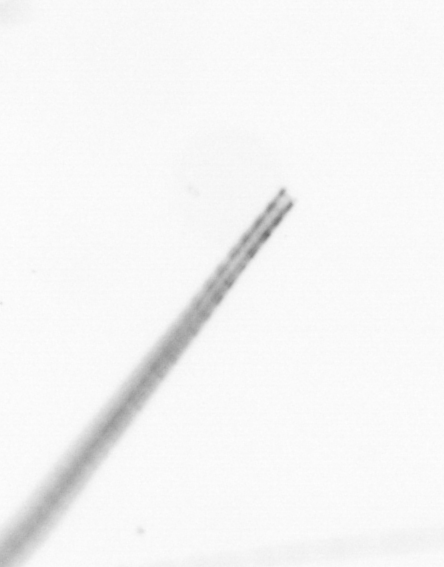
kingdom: Chromista
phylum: Ochrophyta
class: Bacillariophyceae
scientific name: Bacillariophyceae
